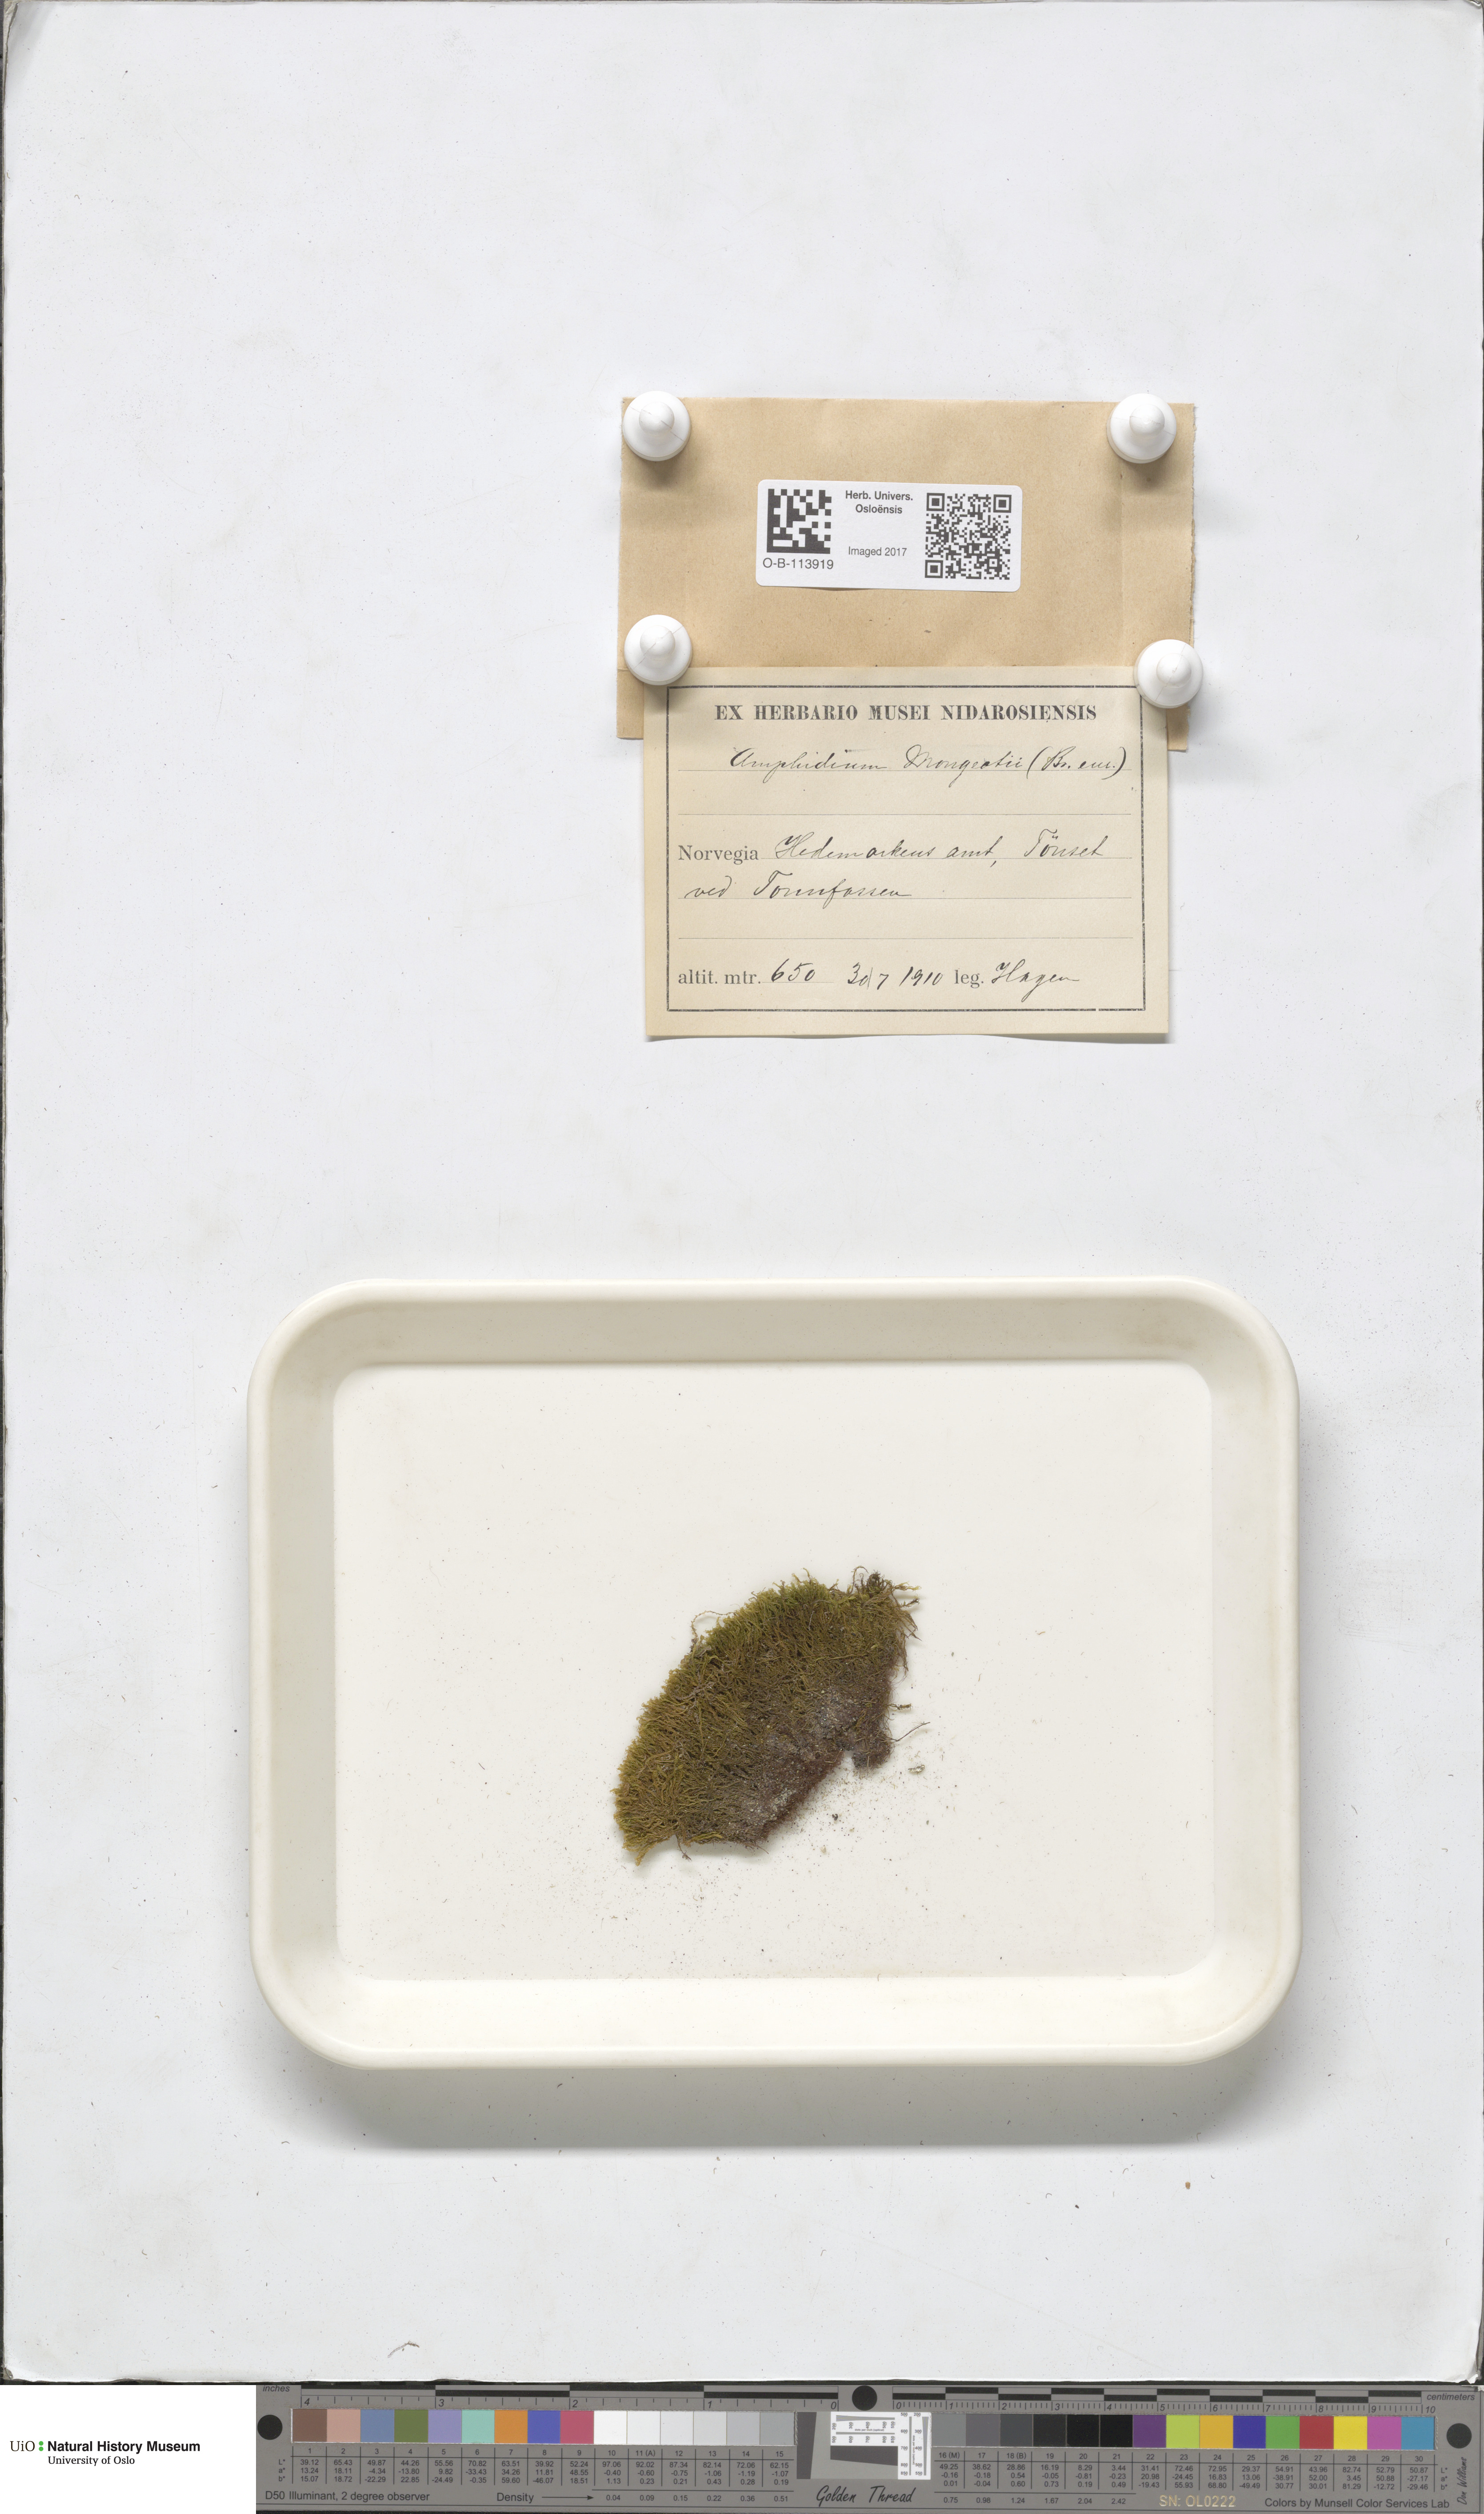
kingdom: Plantae
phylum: Bryophyta
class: Bryopsida
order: Dicranales
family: Amphidiaceae
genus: Amphidium
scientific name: Amphidium mougeotii
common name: Mougeot's yoke moss
